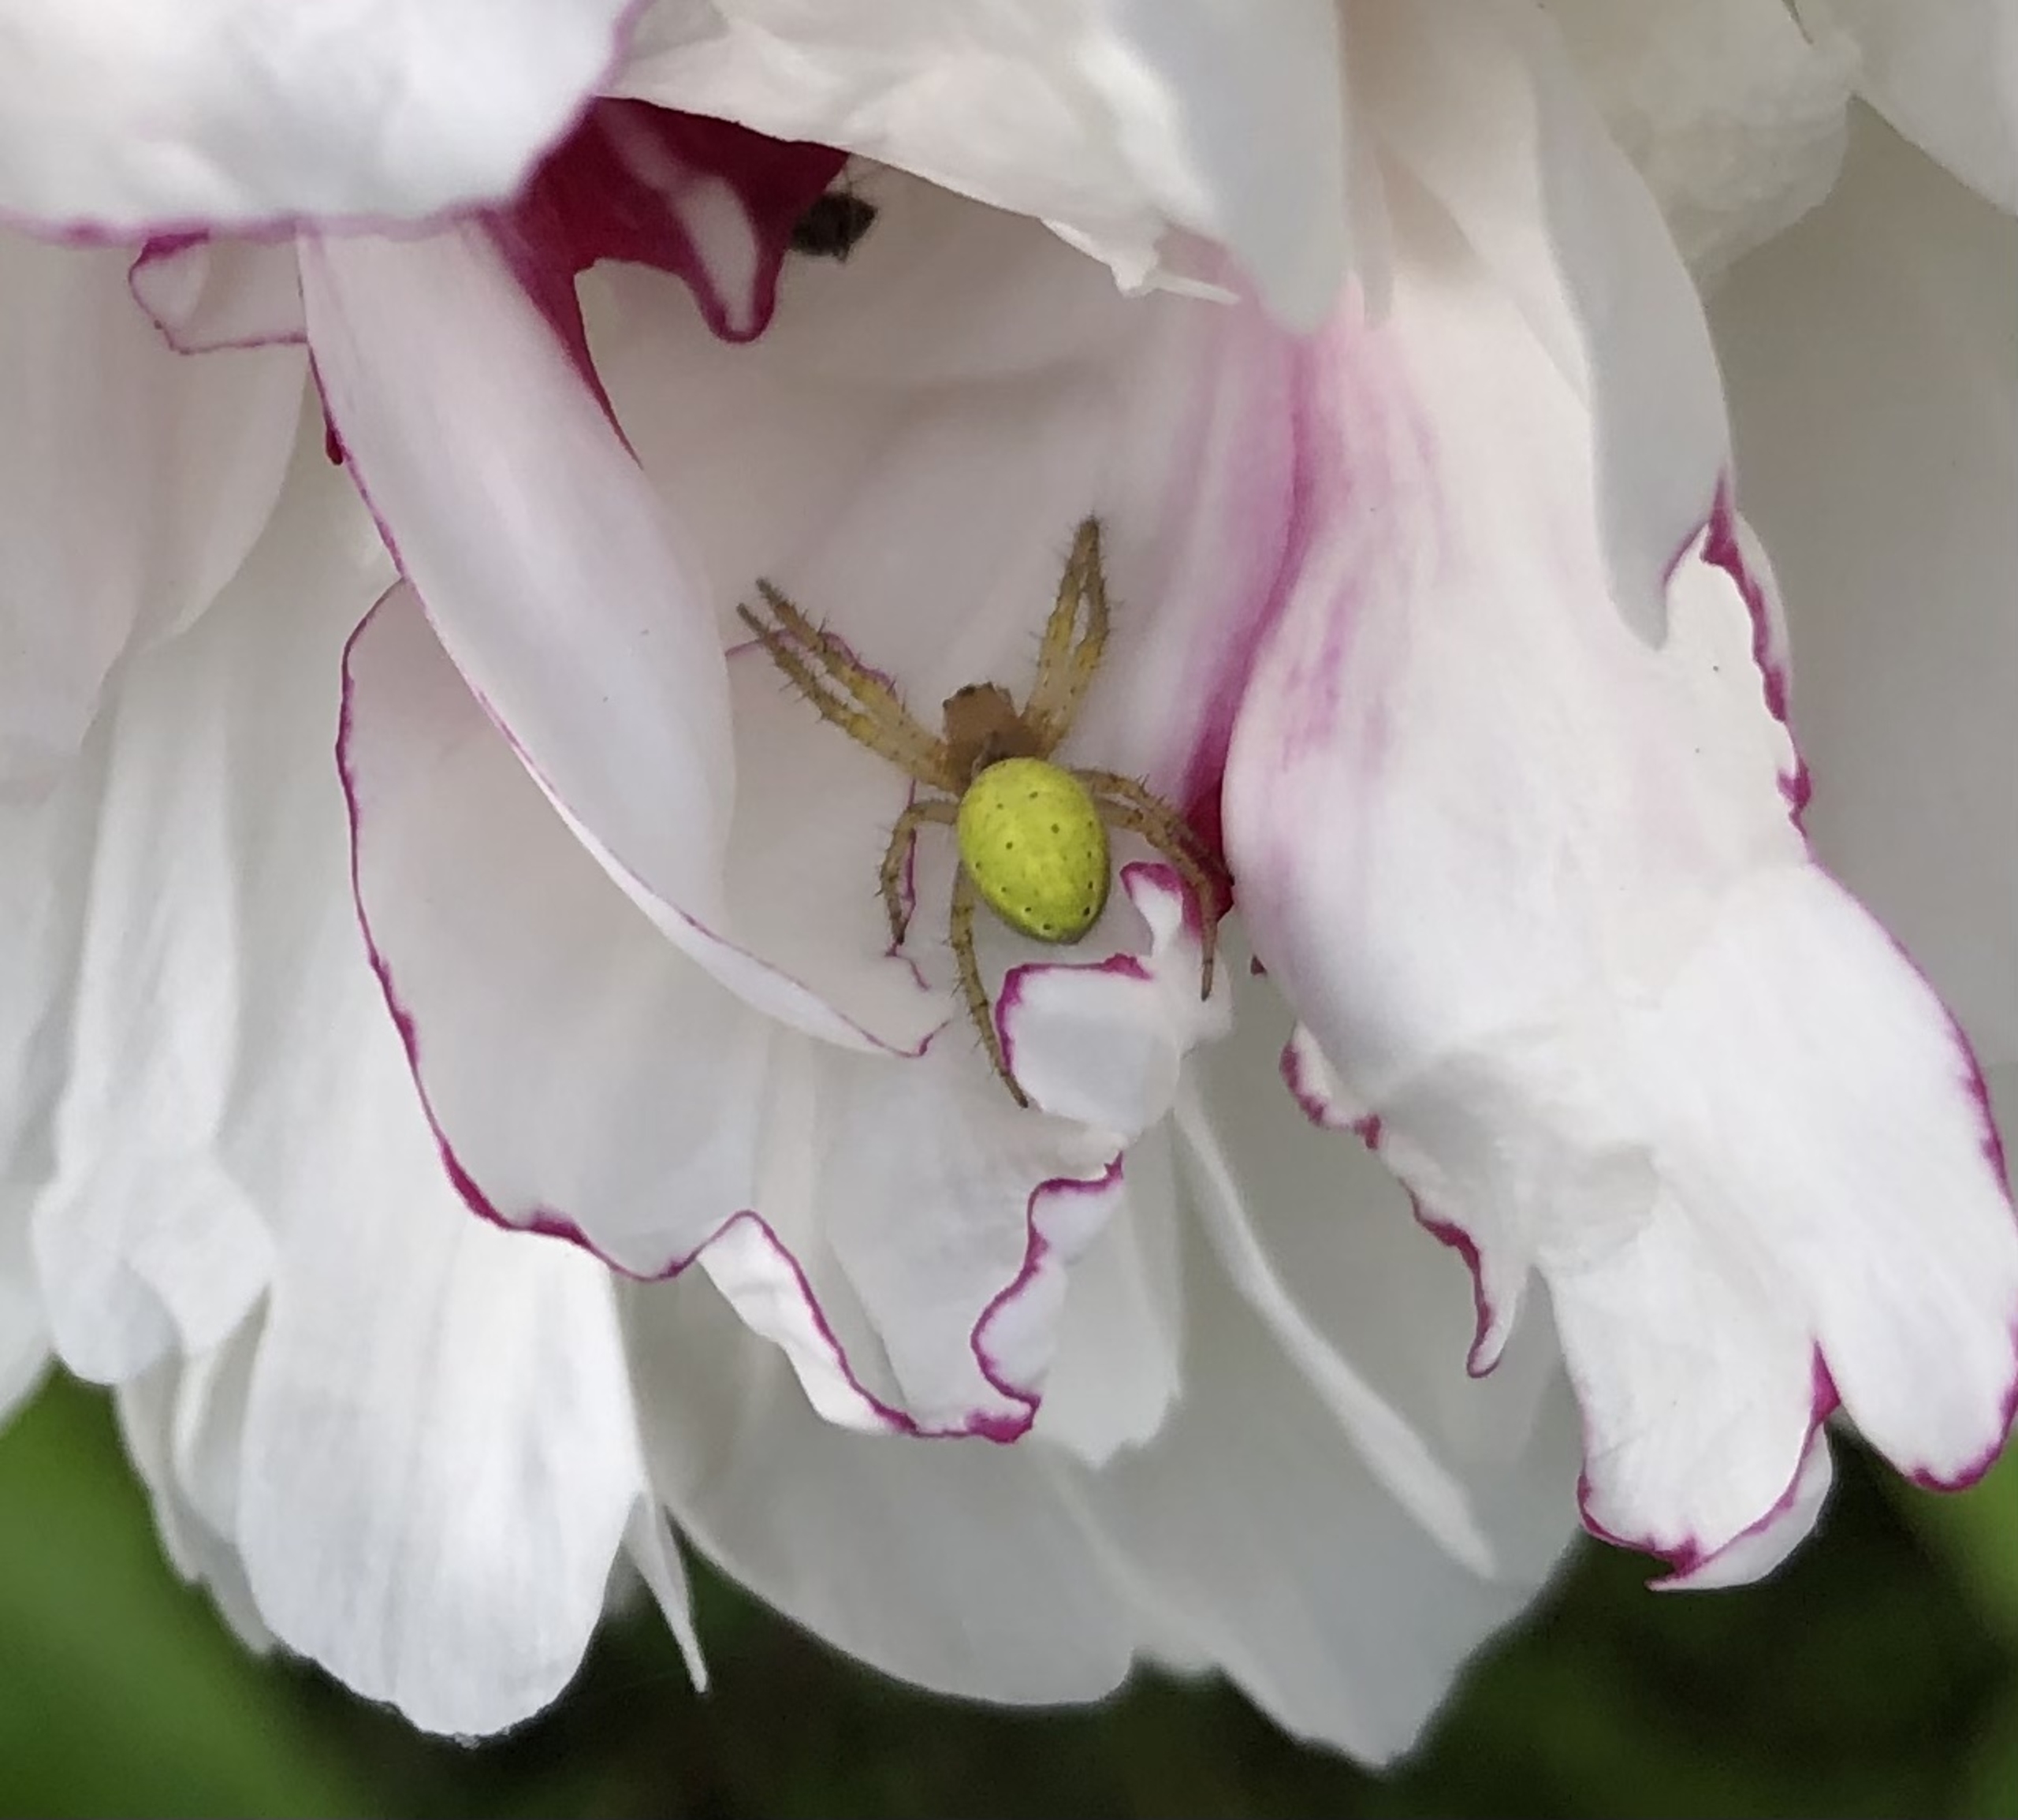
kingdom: Animalia
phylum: Arthropoda
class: Arachnida
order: Araneae
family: Araneidae
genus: Araniella
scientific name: Araniella
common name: Agurkeedderkopslægten
